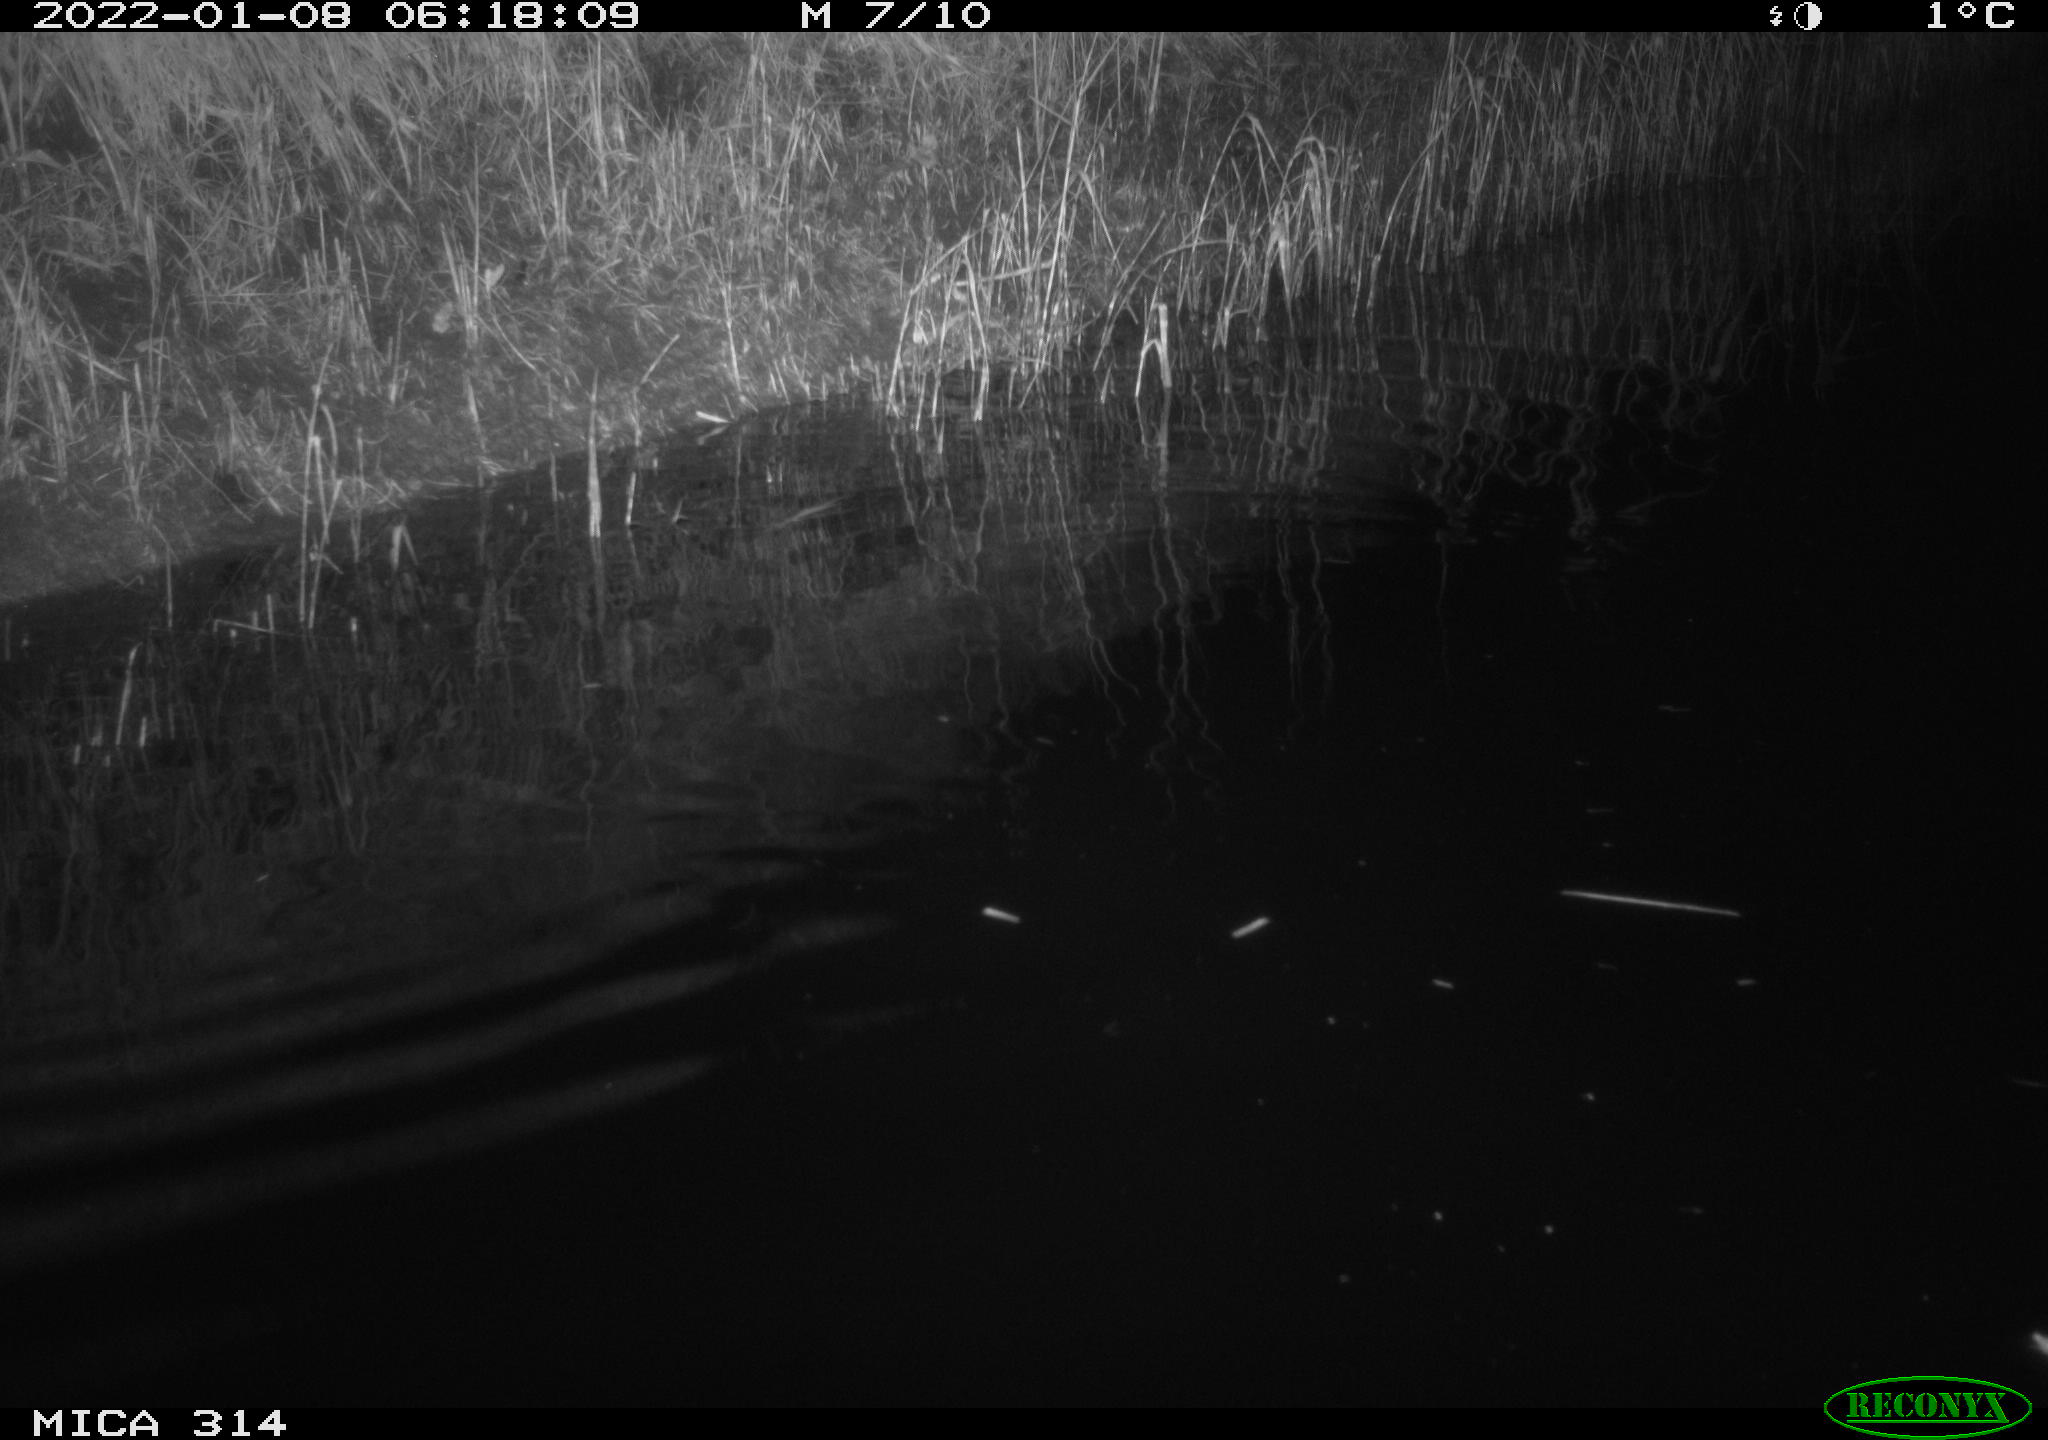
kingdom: Animalia
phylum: Chordata
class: Mammalia
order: Rodentia
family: Muridae
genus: Rattus
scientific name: Rattus norvegicus
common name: Brown rat
